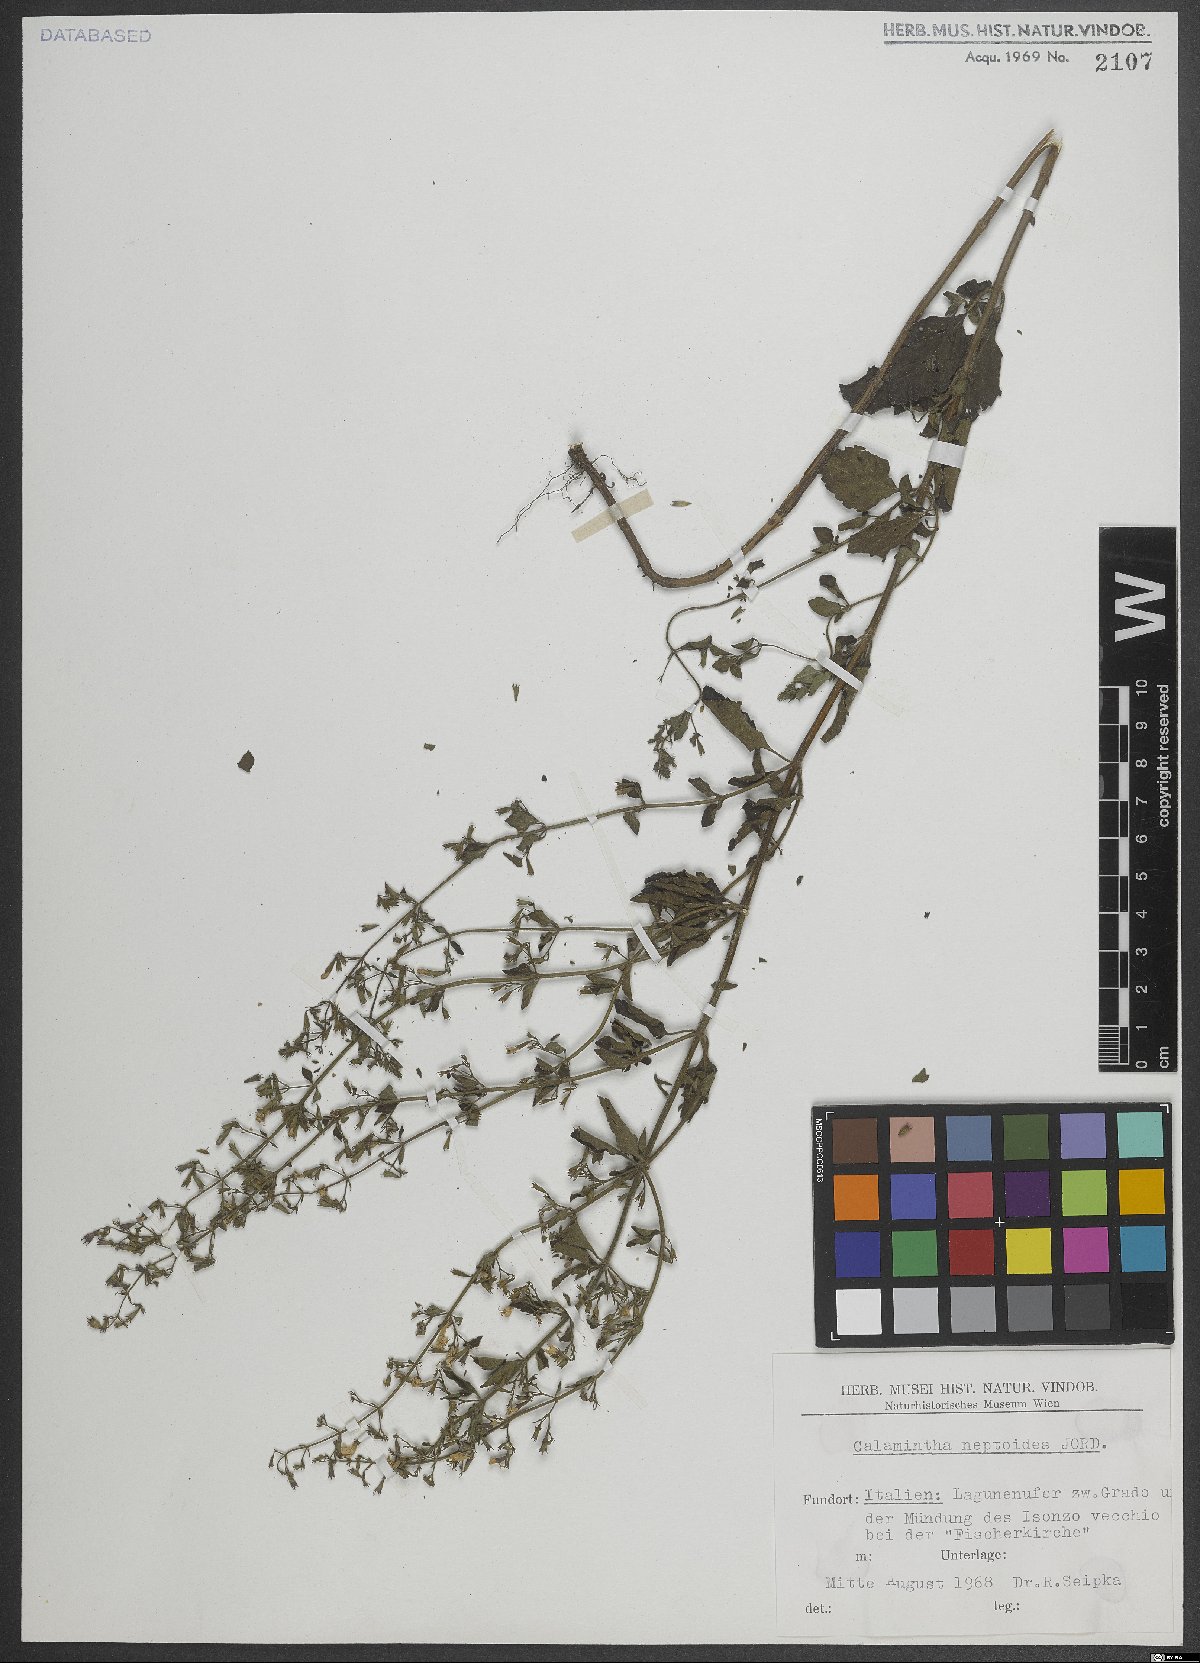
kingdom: Plantae
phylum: Tracheophyta
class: Magnoliopsida
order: Lamiales
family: Lamiaceae
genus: Clinopodium
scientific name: Clinopodium nepeta
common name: Lesser calamint
